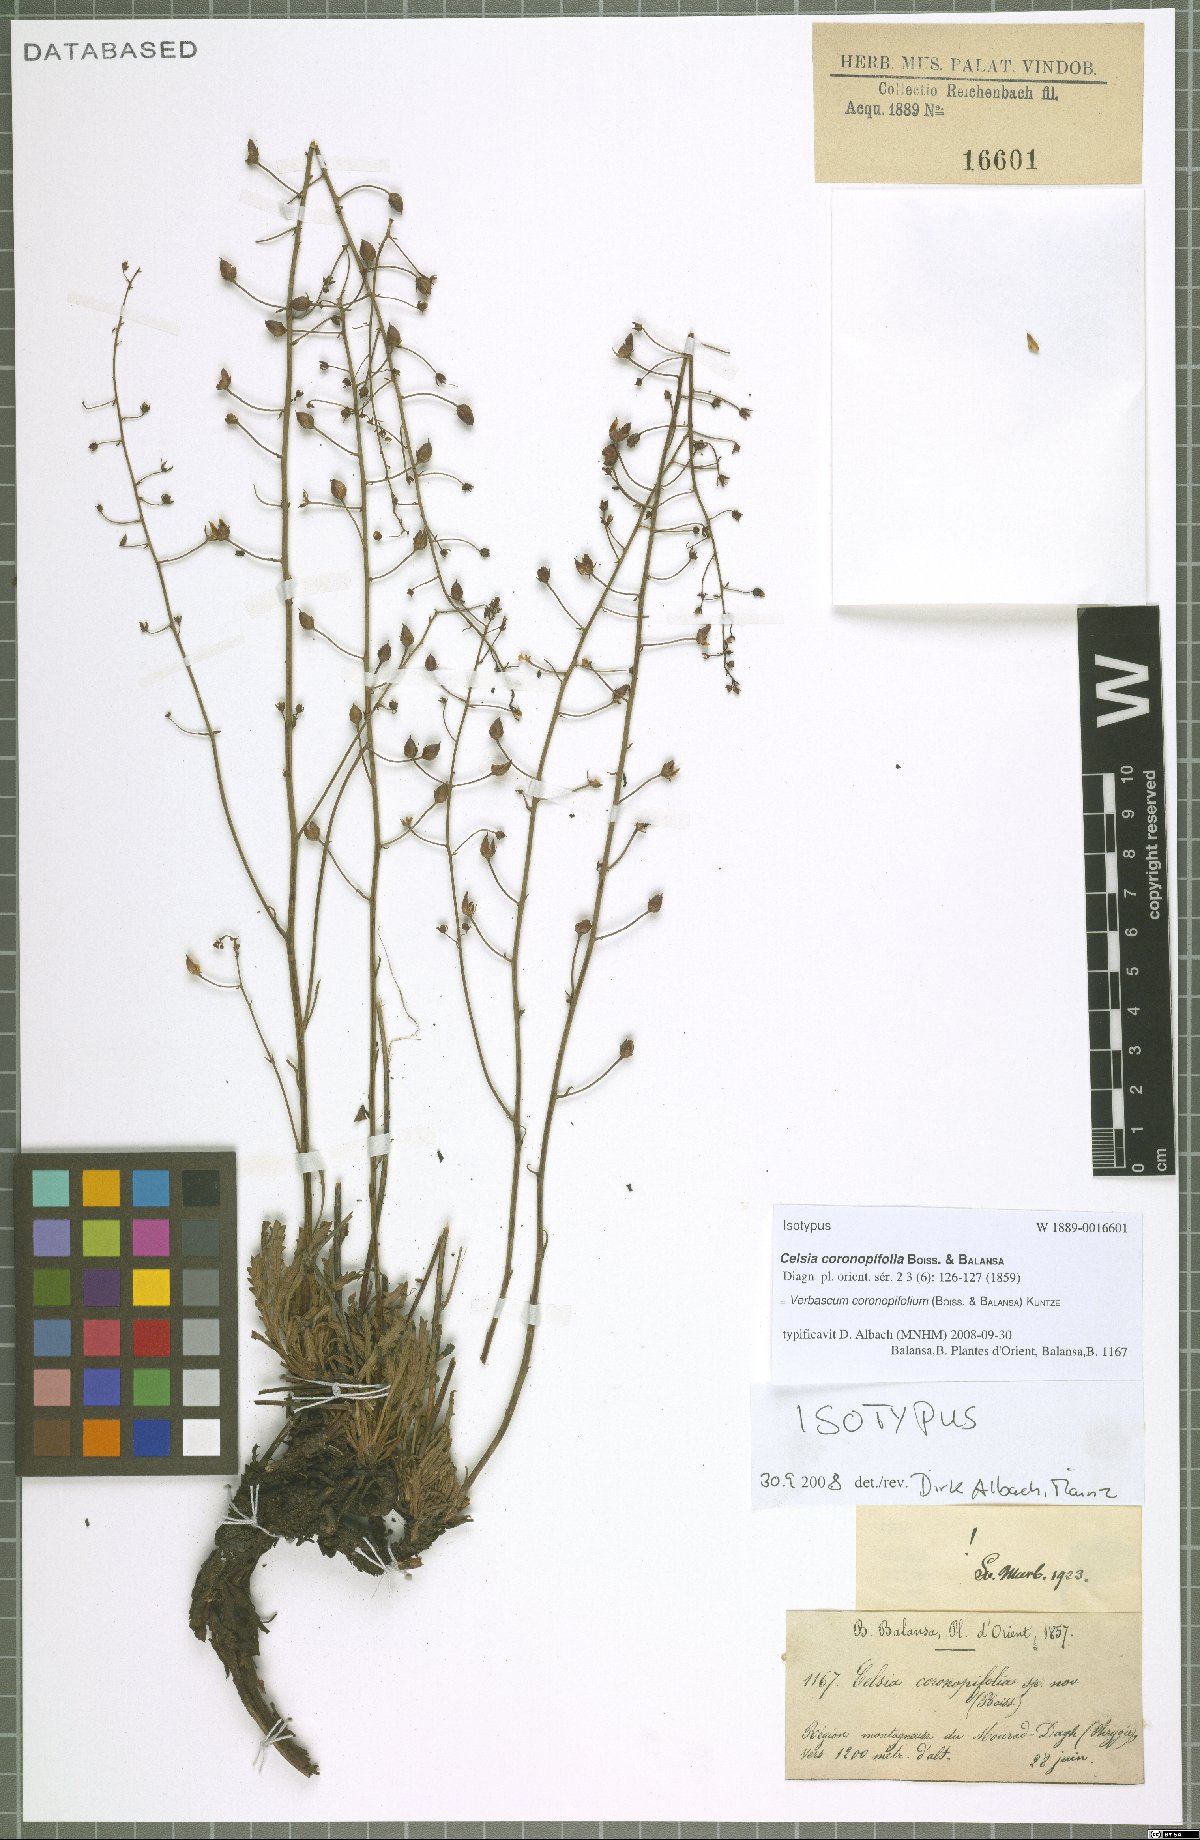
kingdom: Plantae
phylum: Tracheophyta
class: Magnoliopsida
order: Lamiales
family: Scrophulariaceae
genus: Verbascum
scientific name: Verbascum coronopifolium
